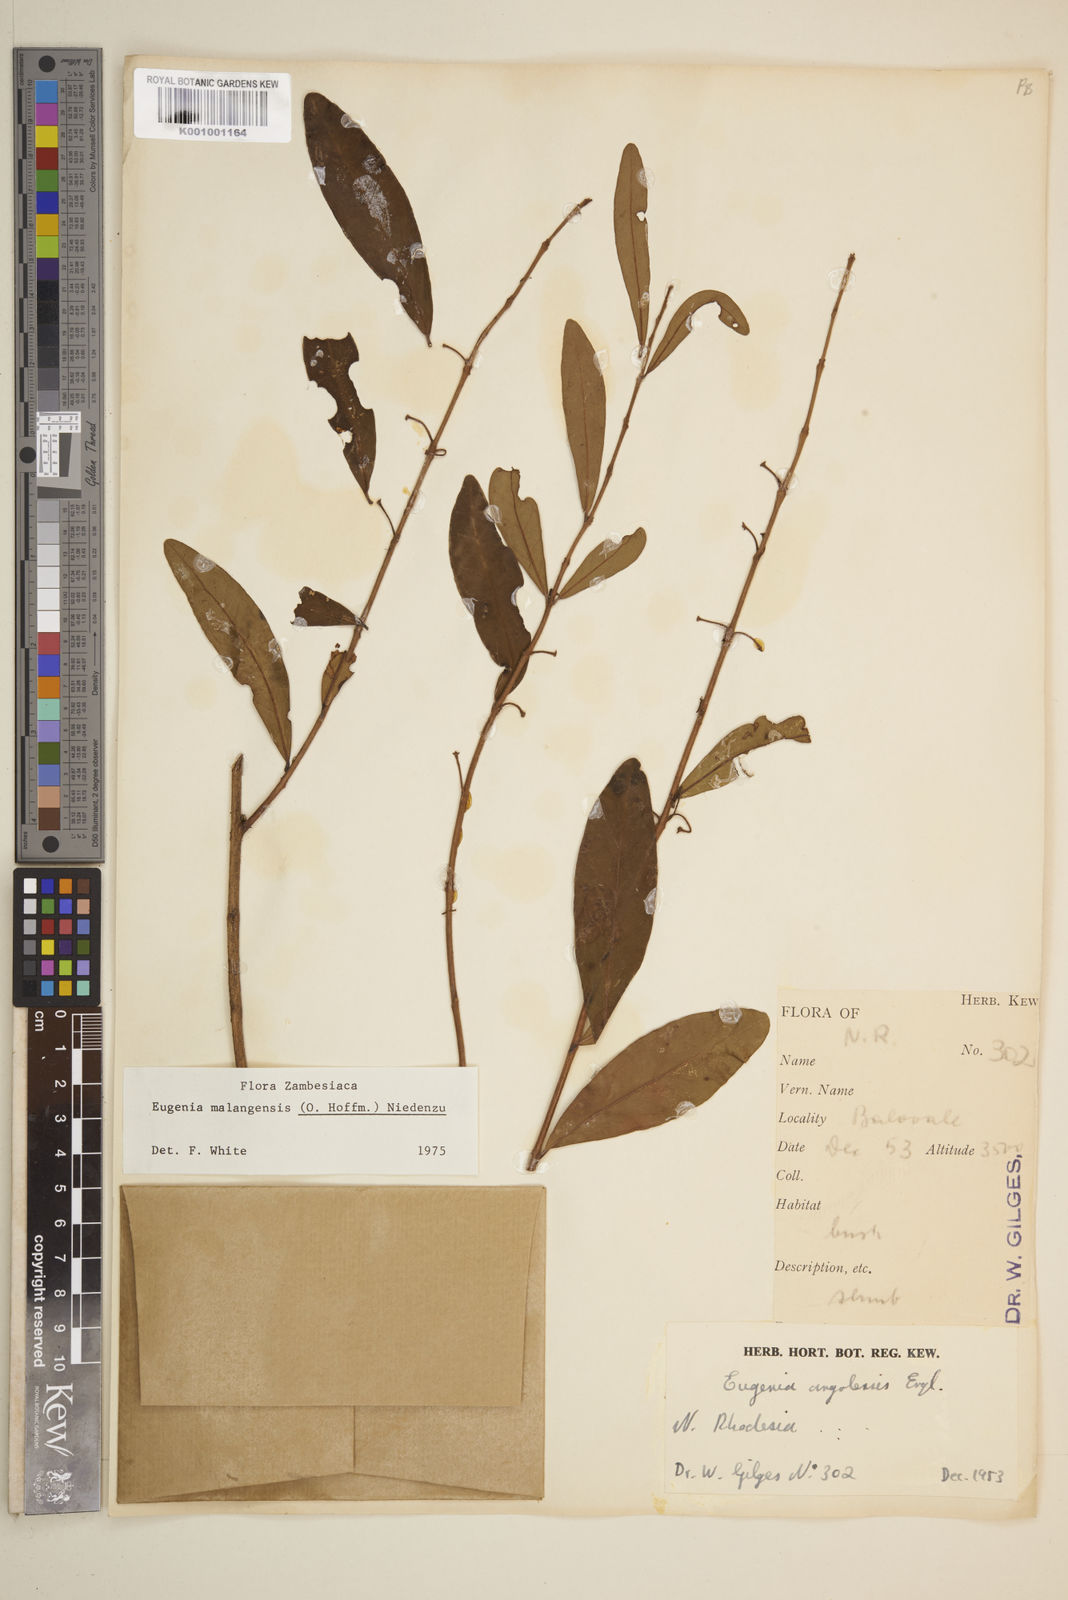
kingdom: Plantae
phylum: Tracheophyta
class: Magnoliopsida
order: Myrtales
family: Myrtaceae
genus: Eugenia
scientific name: Eugenia malangensis
